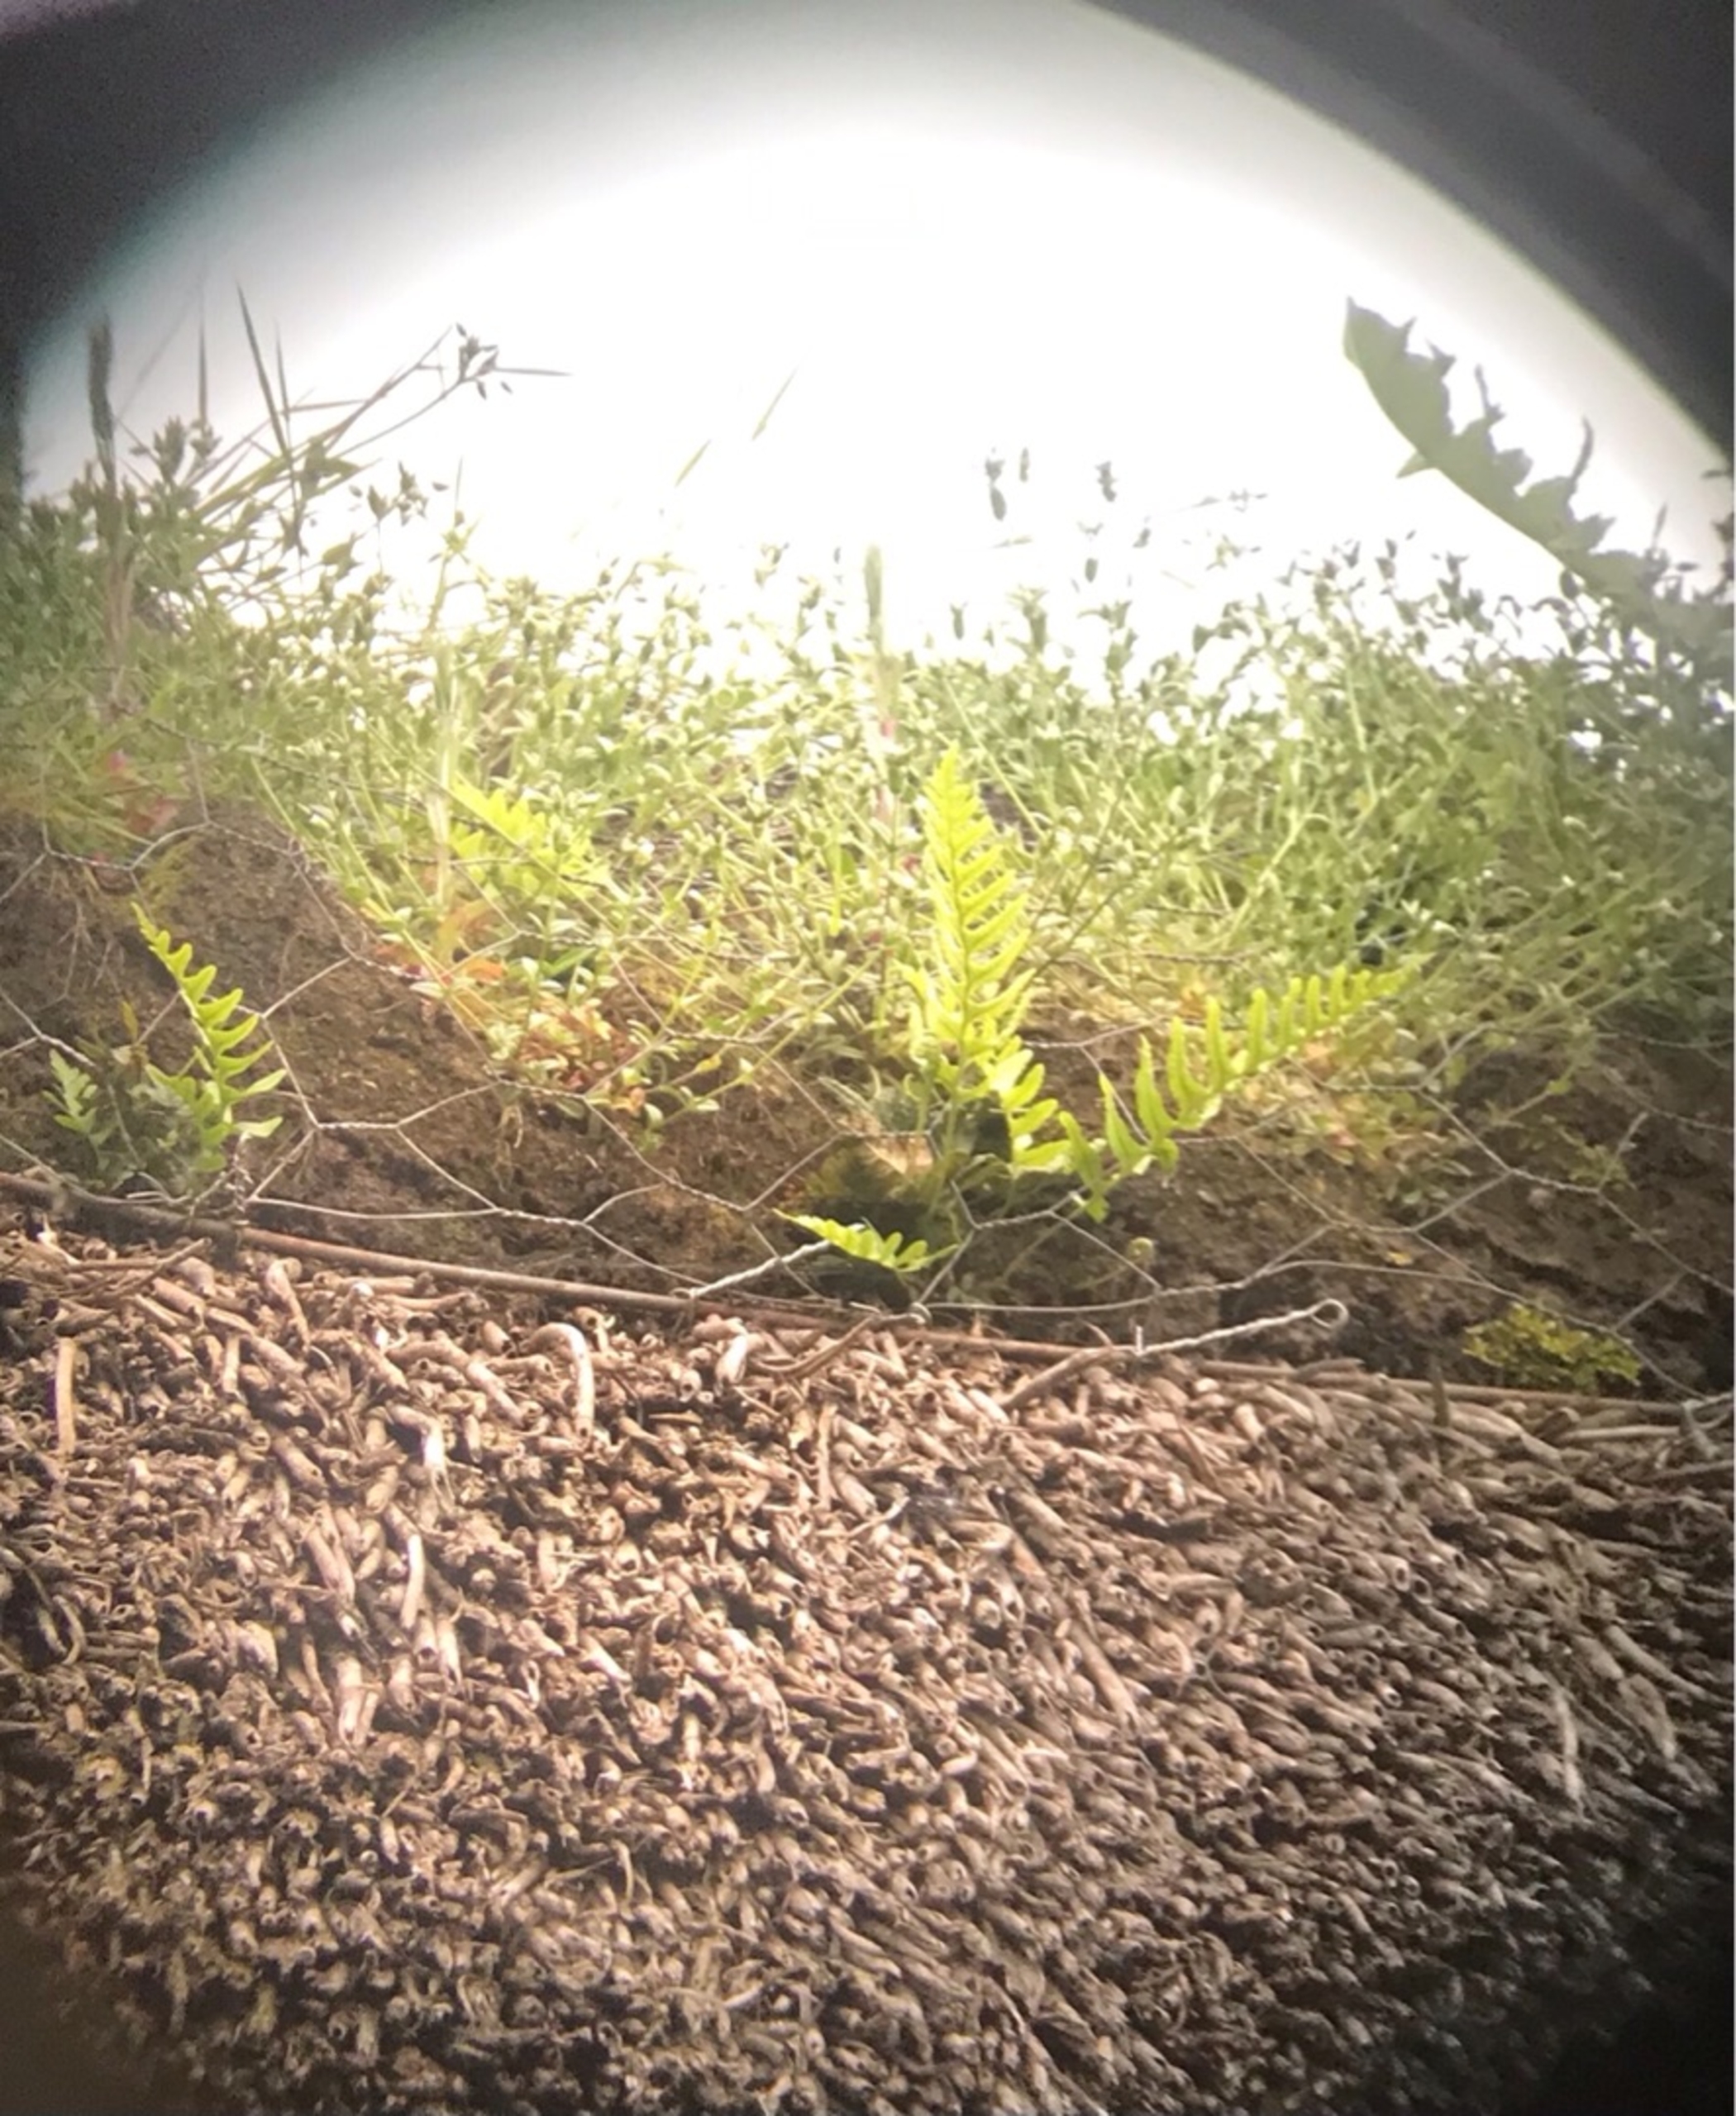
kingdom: Plantae
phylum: Tracheophyta
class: Polypodiopsida
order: Polypodiales
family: Polypodiaceae
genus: Polypodium
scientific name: Polypodium vulgare
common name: Almindelig engelsød
